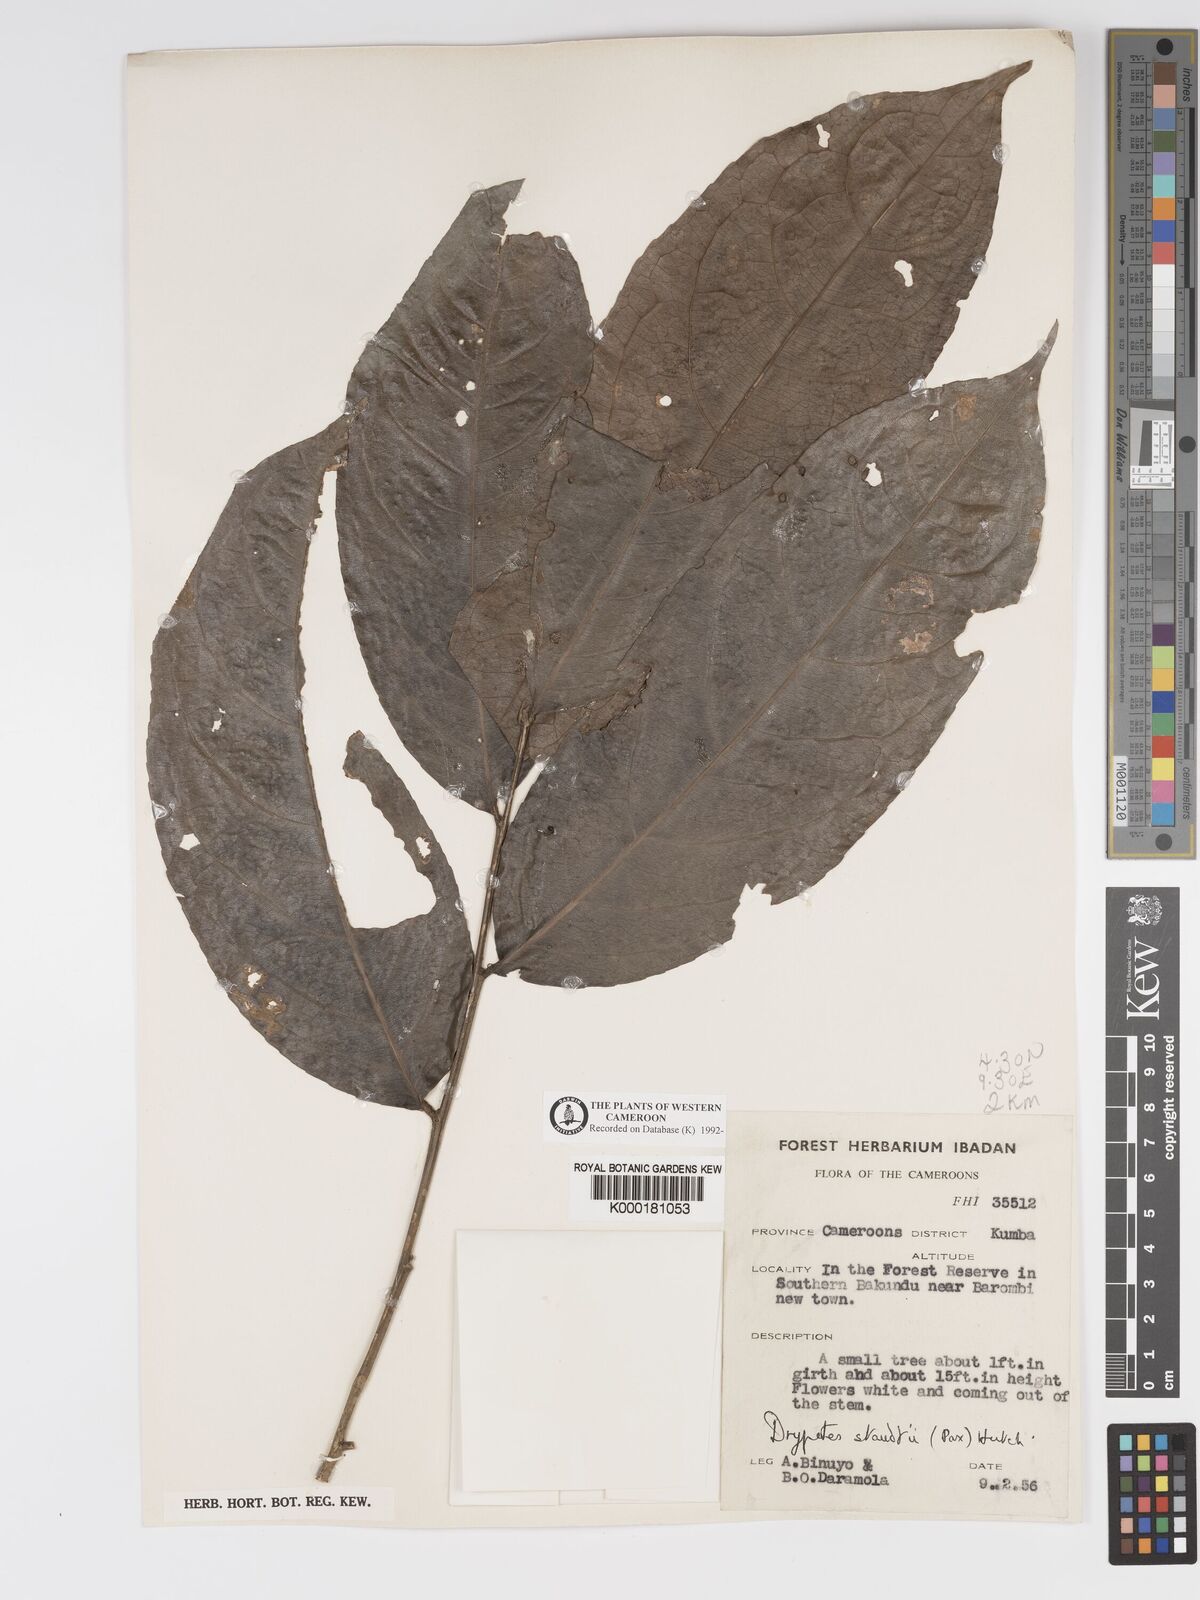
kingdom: Plantae
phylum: Tracheophyta
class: Magnoliopsida
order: Malpighiales
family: Putranjivaceae
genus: Drypetes
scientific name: Drypetes staudtii
